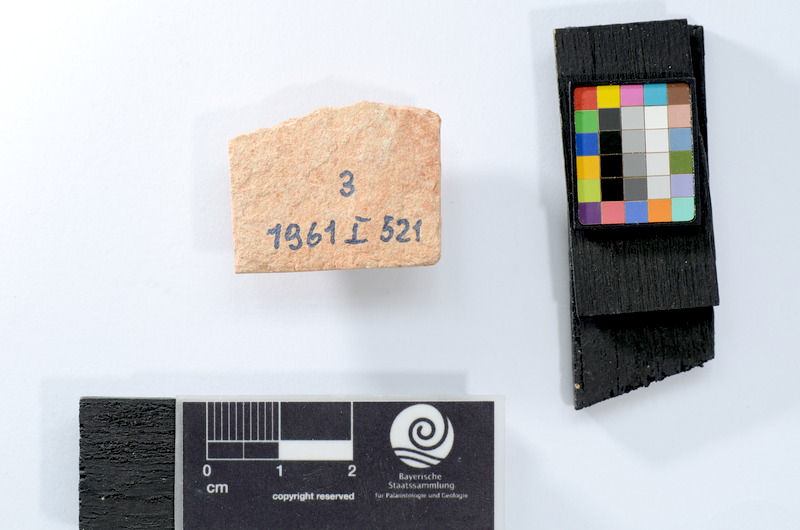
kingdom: Animalia
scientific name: Animalia
